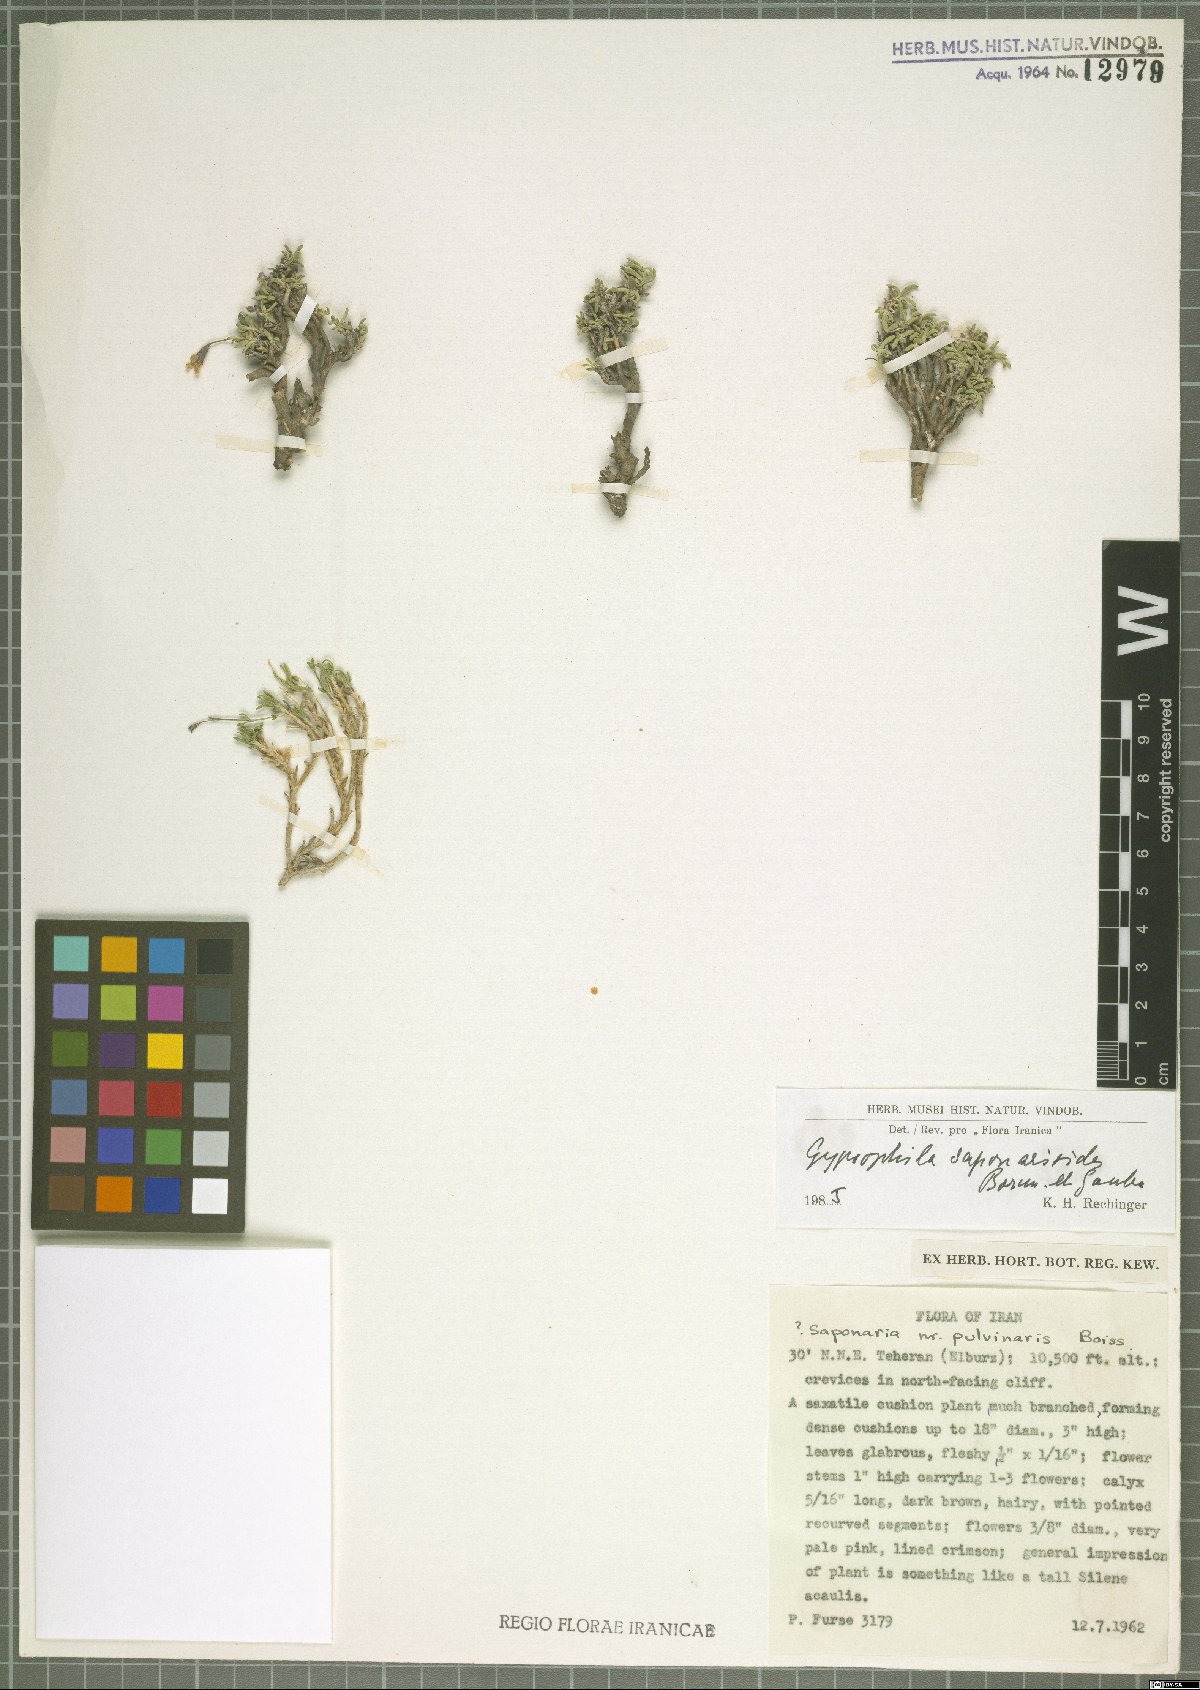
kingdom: Plantae
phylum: Tracheophyta
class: Magnoliopsida
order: Caryophyllales
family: Caryophyllaceae
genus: Gypsophila
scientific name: Gypsophila saponarioides
